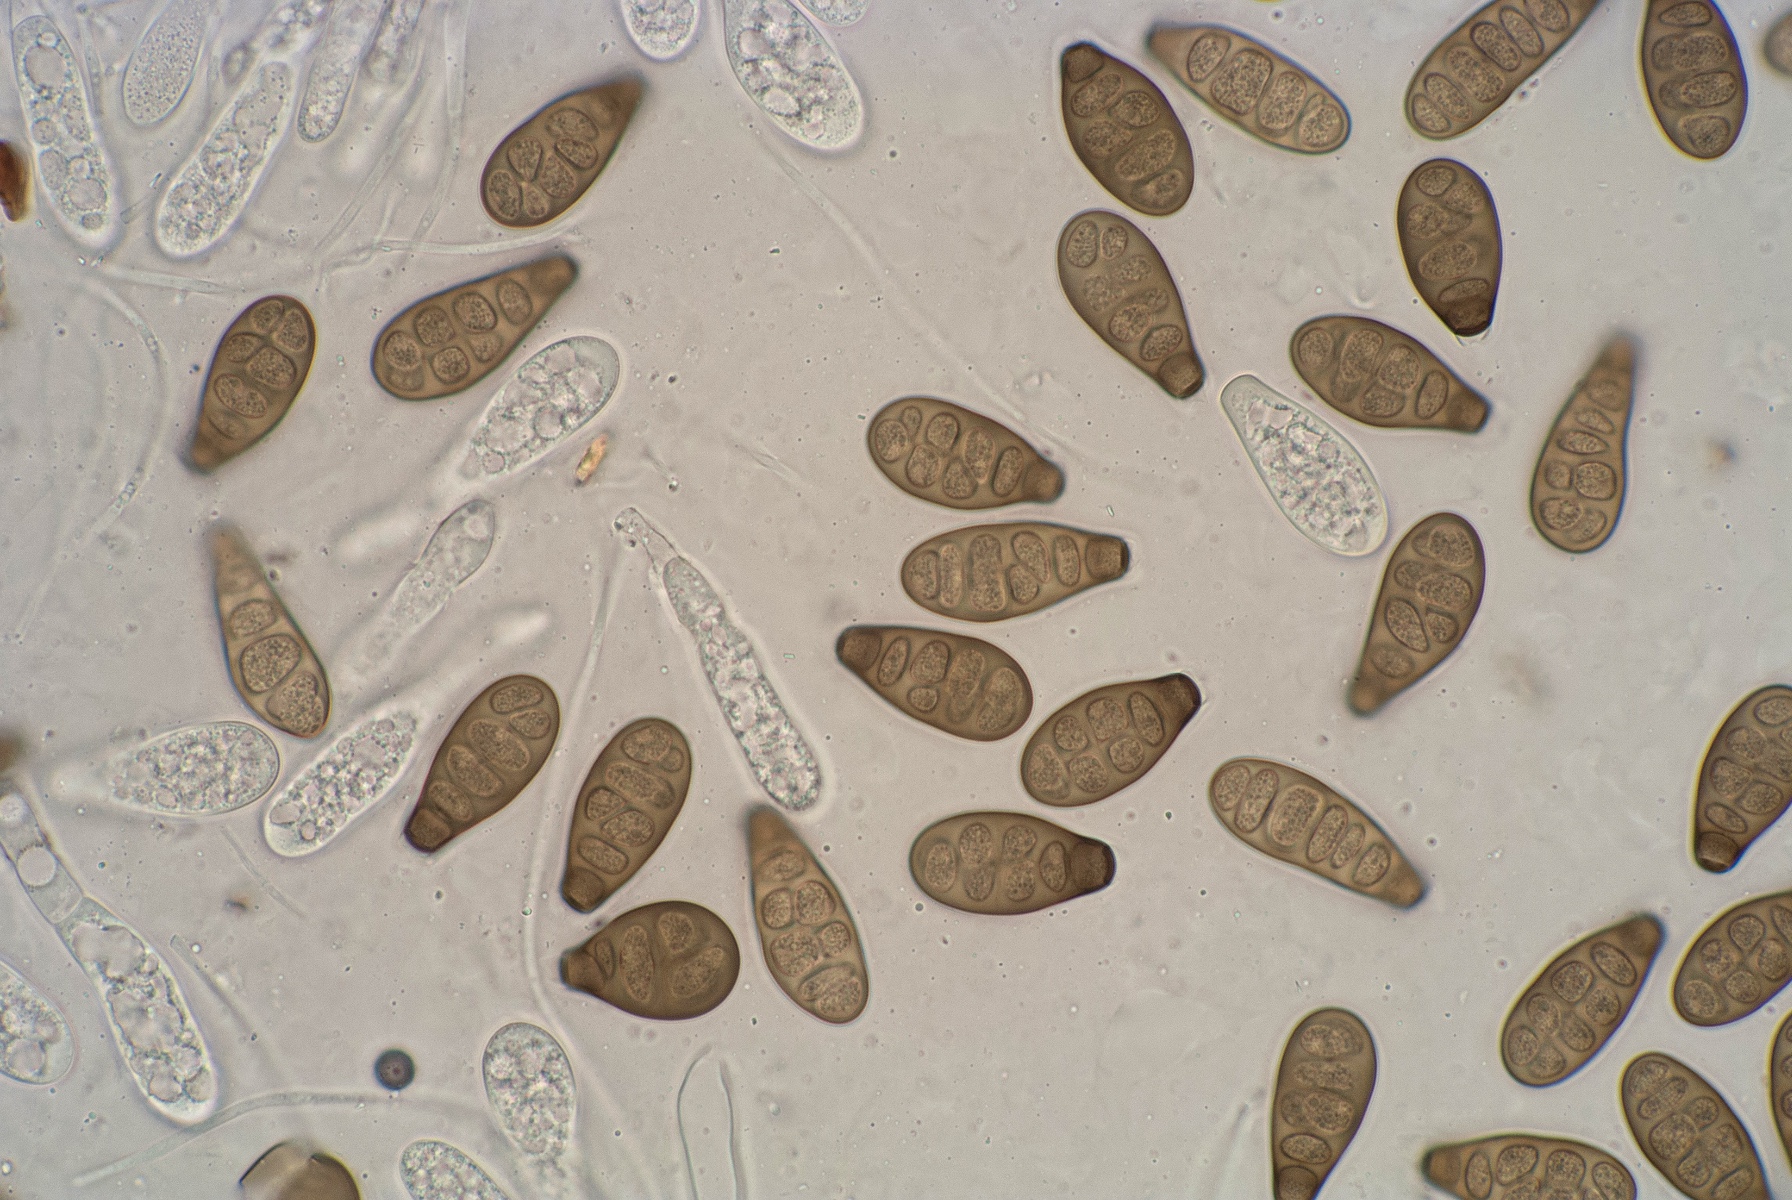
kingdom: Fungi
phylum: Ascomycota
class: Sordariomycetes
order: Diaporthales
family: Melanconidaceae
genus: Prosthecium
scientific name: Prosthecium pyriforme
